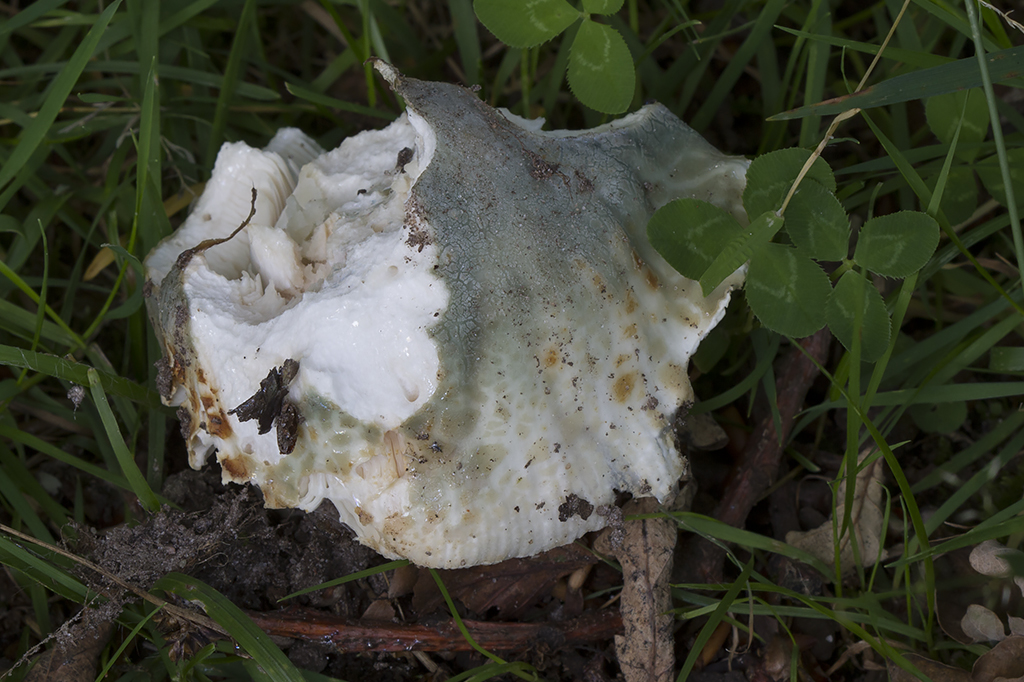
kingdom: Fungi
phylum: Basidiomycota
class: Agaricomycetes
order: Russulales
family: Russulaceae
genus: Russula
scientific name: Russula virescens
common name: spanskgrøn skørhat
